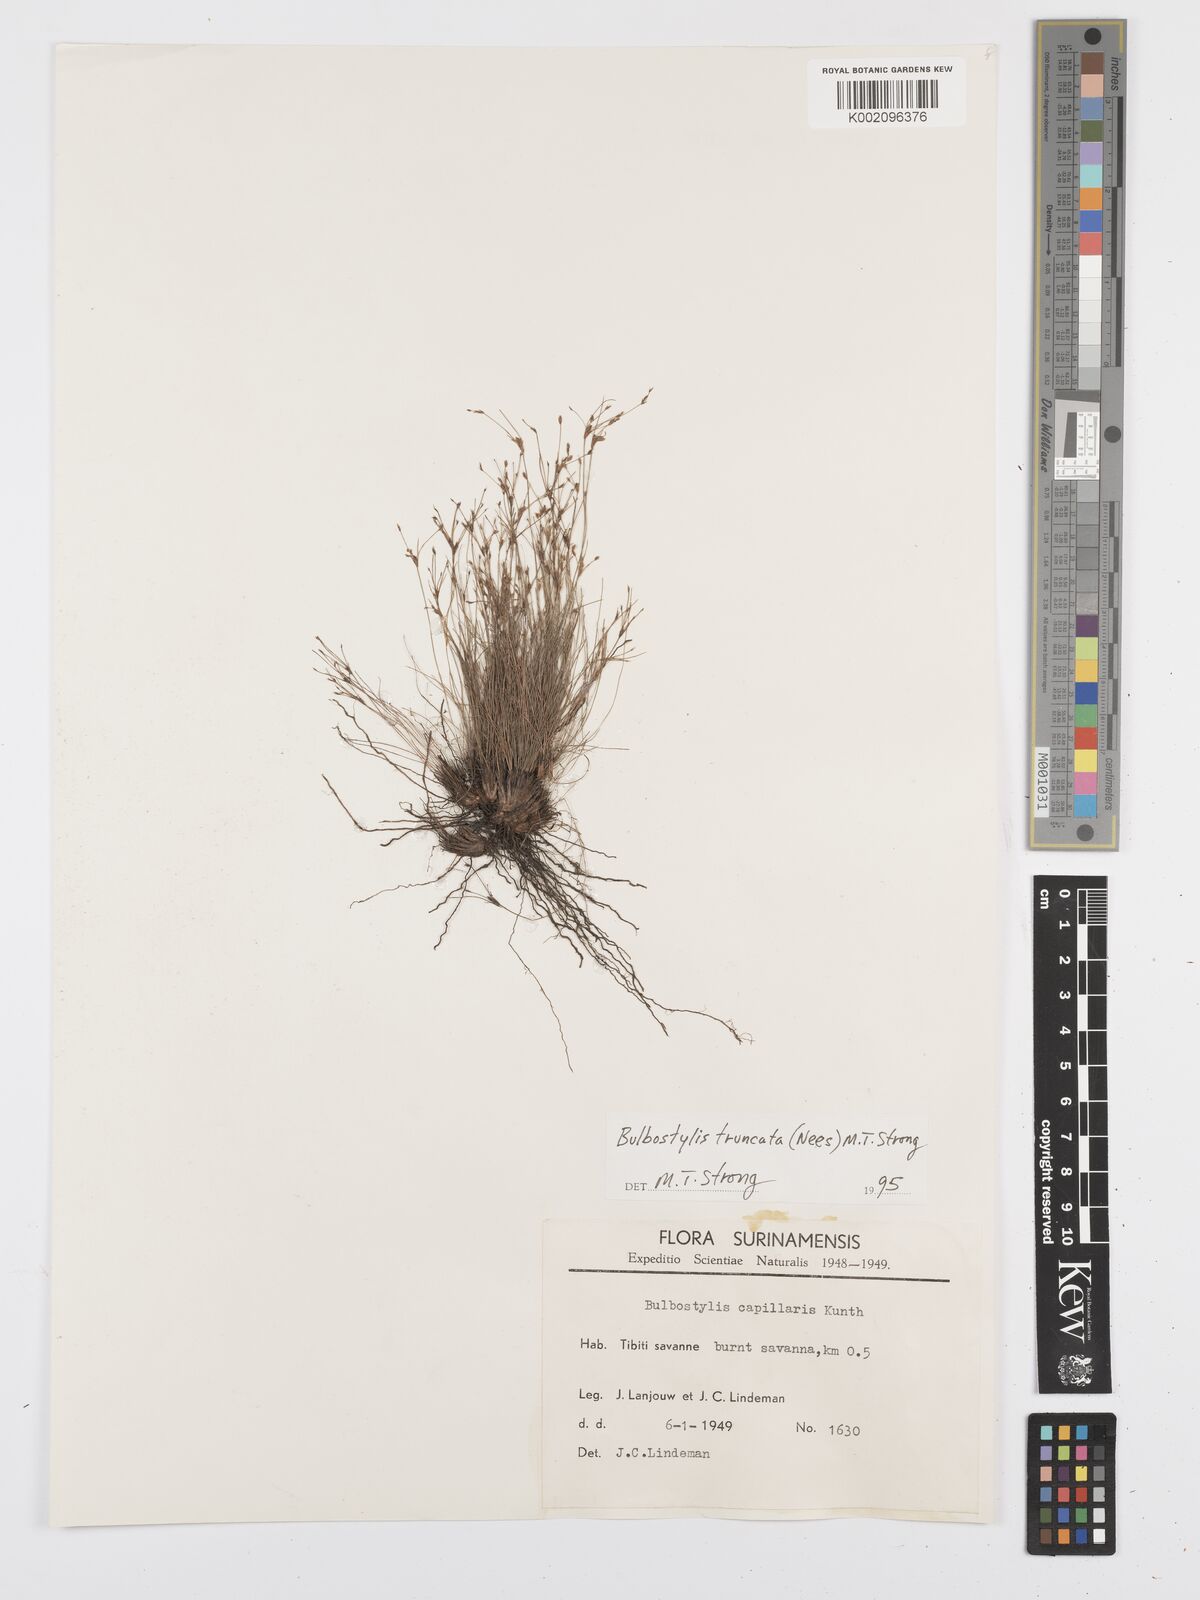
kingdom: Plantae
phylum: Tracheophyta
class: Liliopsida
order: Poales
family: Cyperaceae
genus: Bulbostylis
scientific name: Bulbostylis truncata
